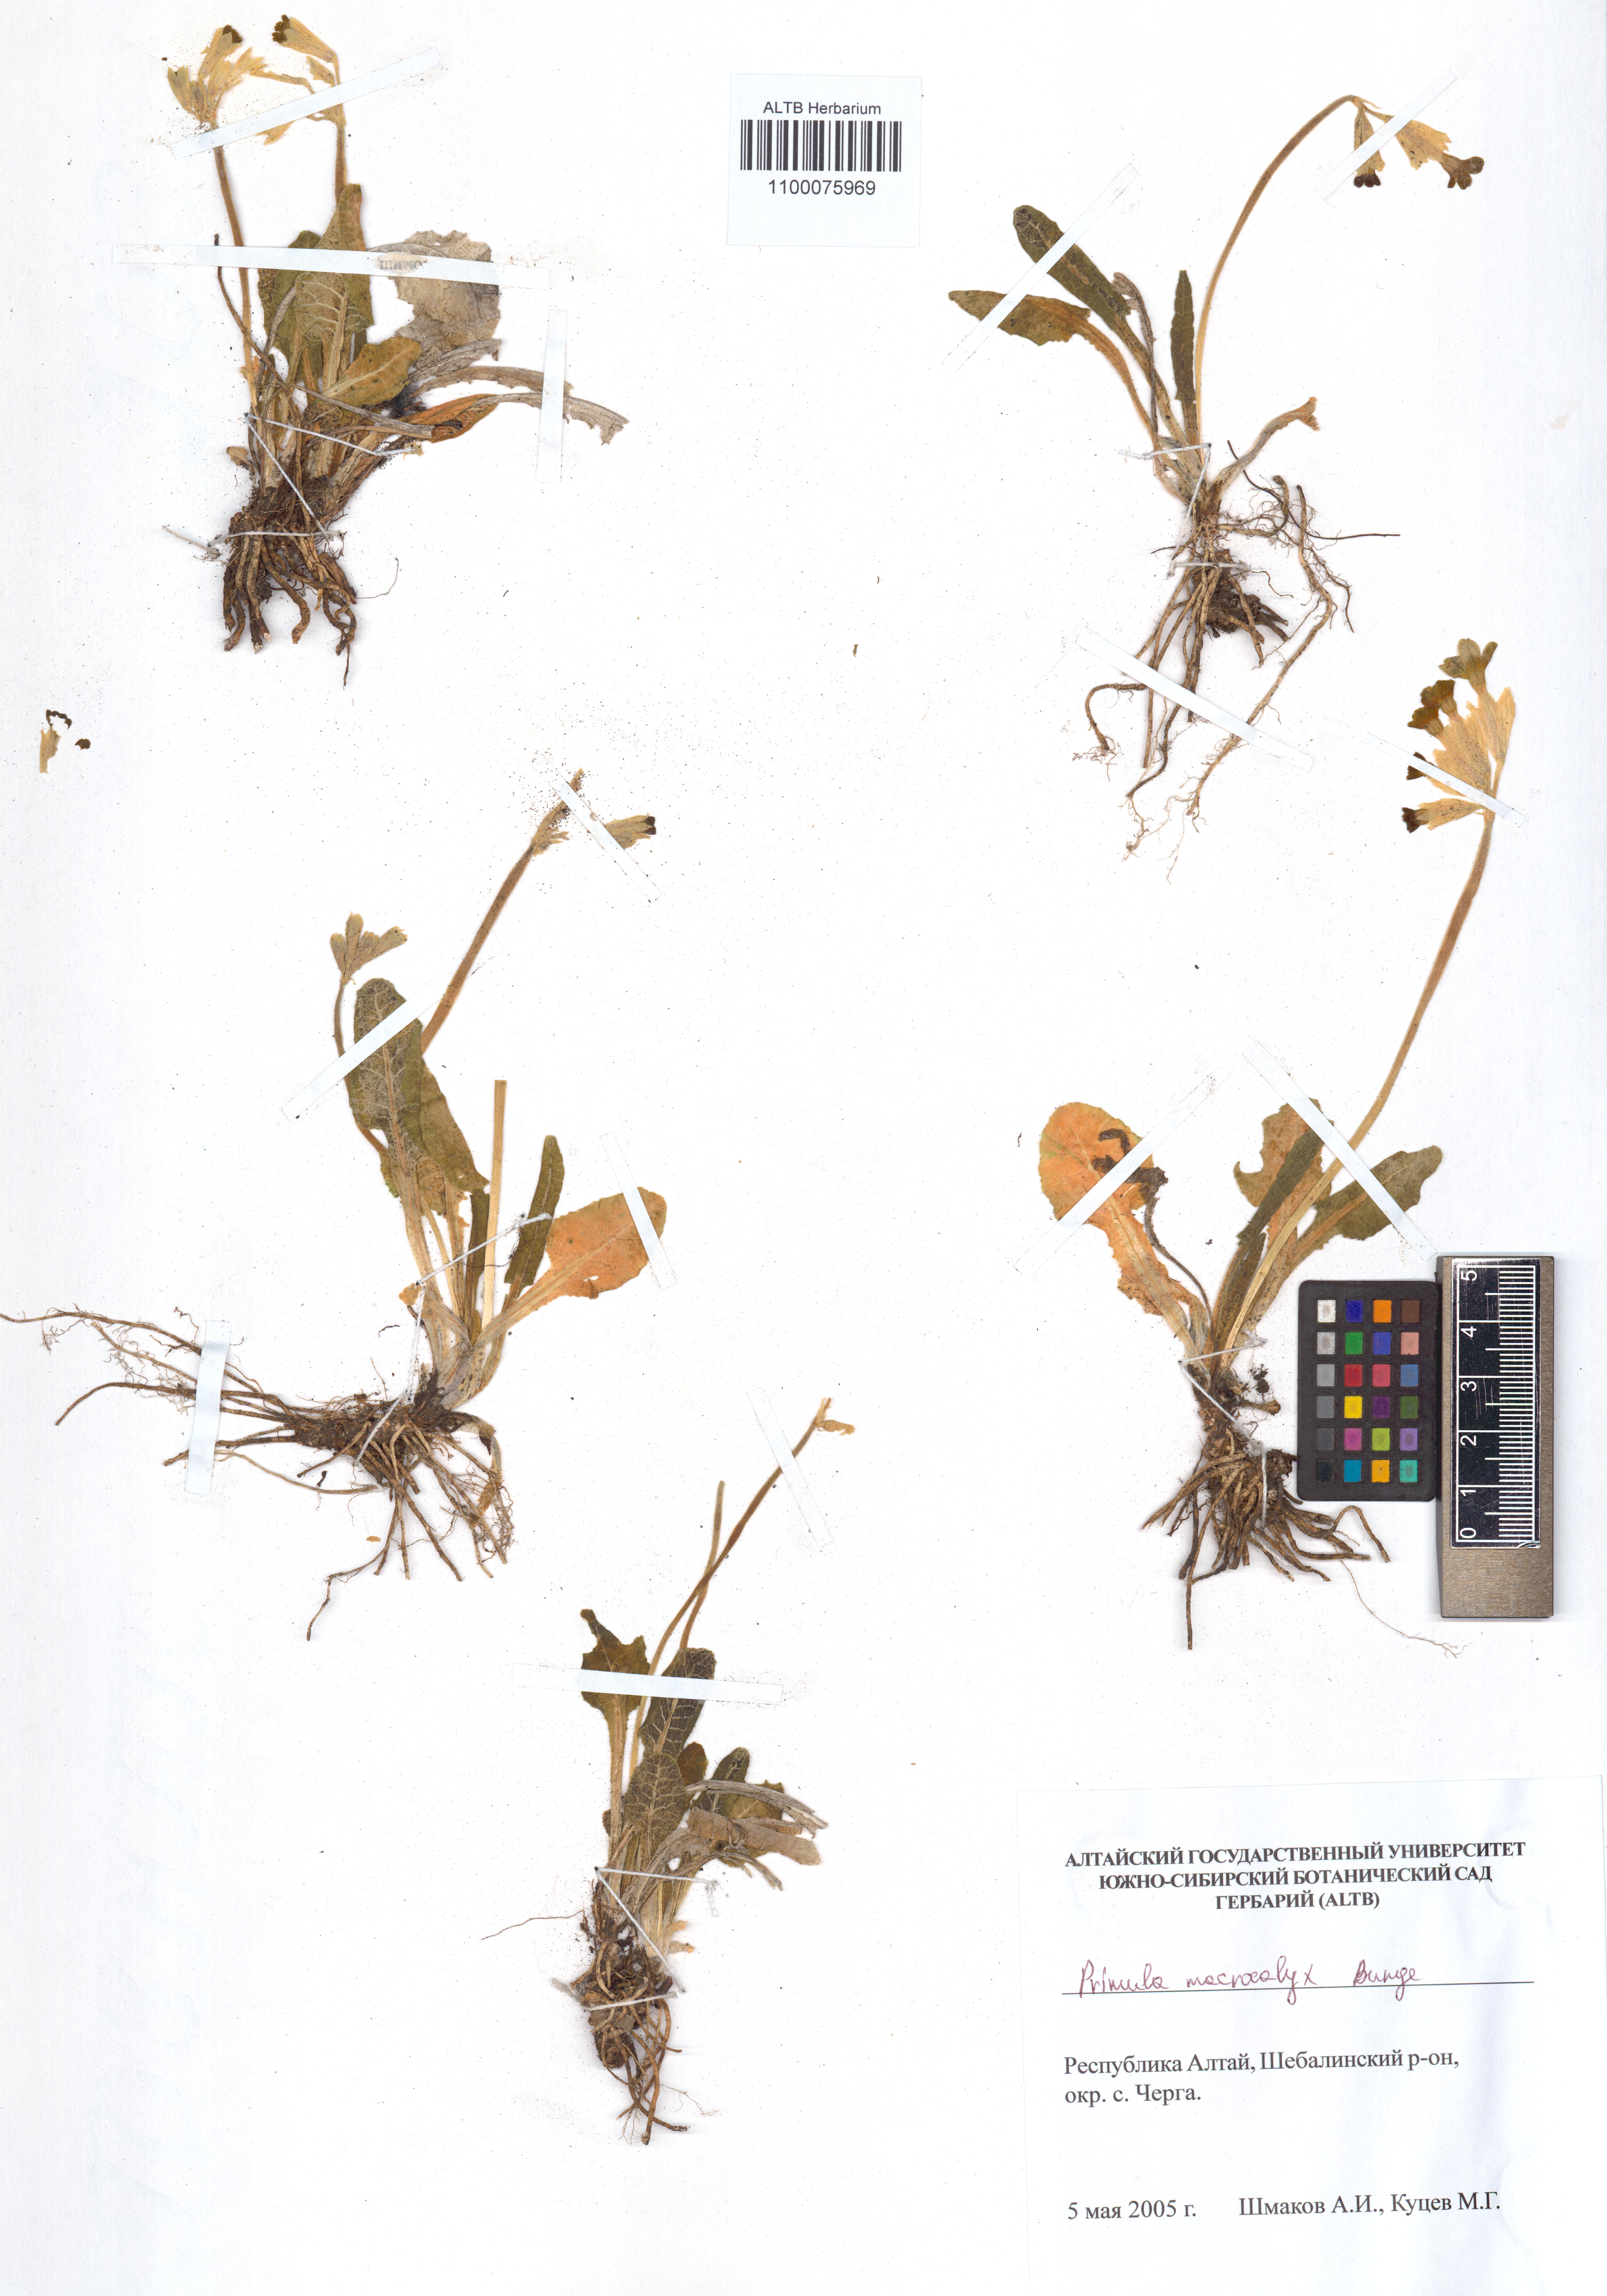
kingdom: Plantae
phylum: Tracheophyta
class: Magnoliopsida
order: Ericales
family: Primulaceae
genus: Primula
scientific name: Primula veris
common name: Cowslip
